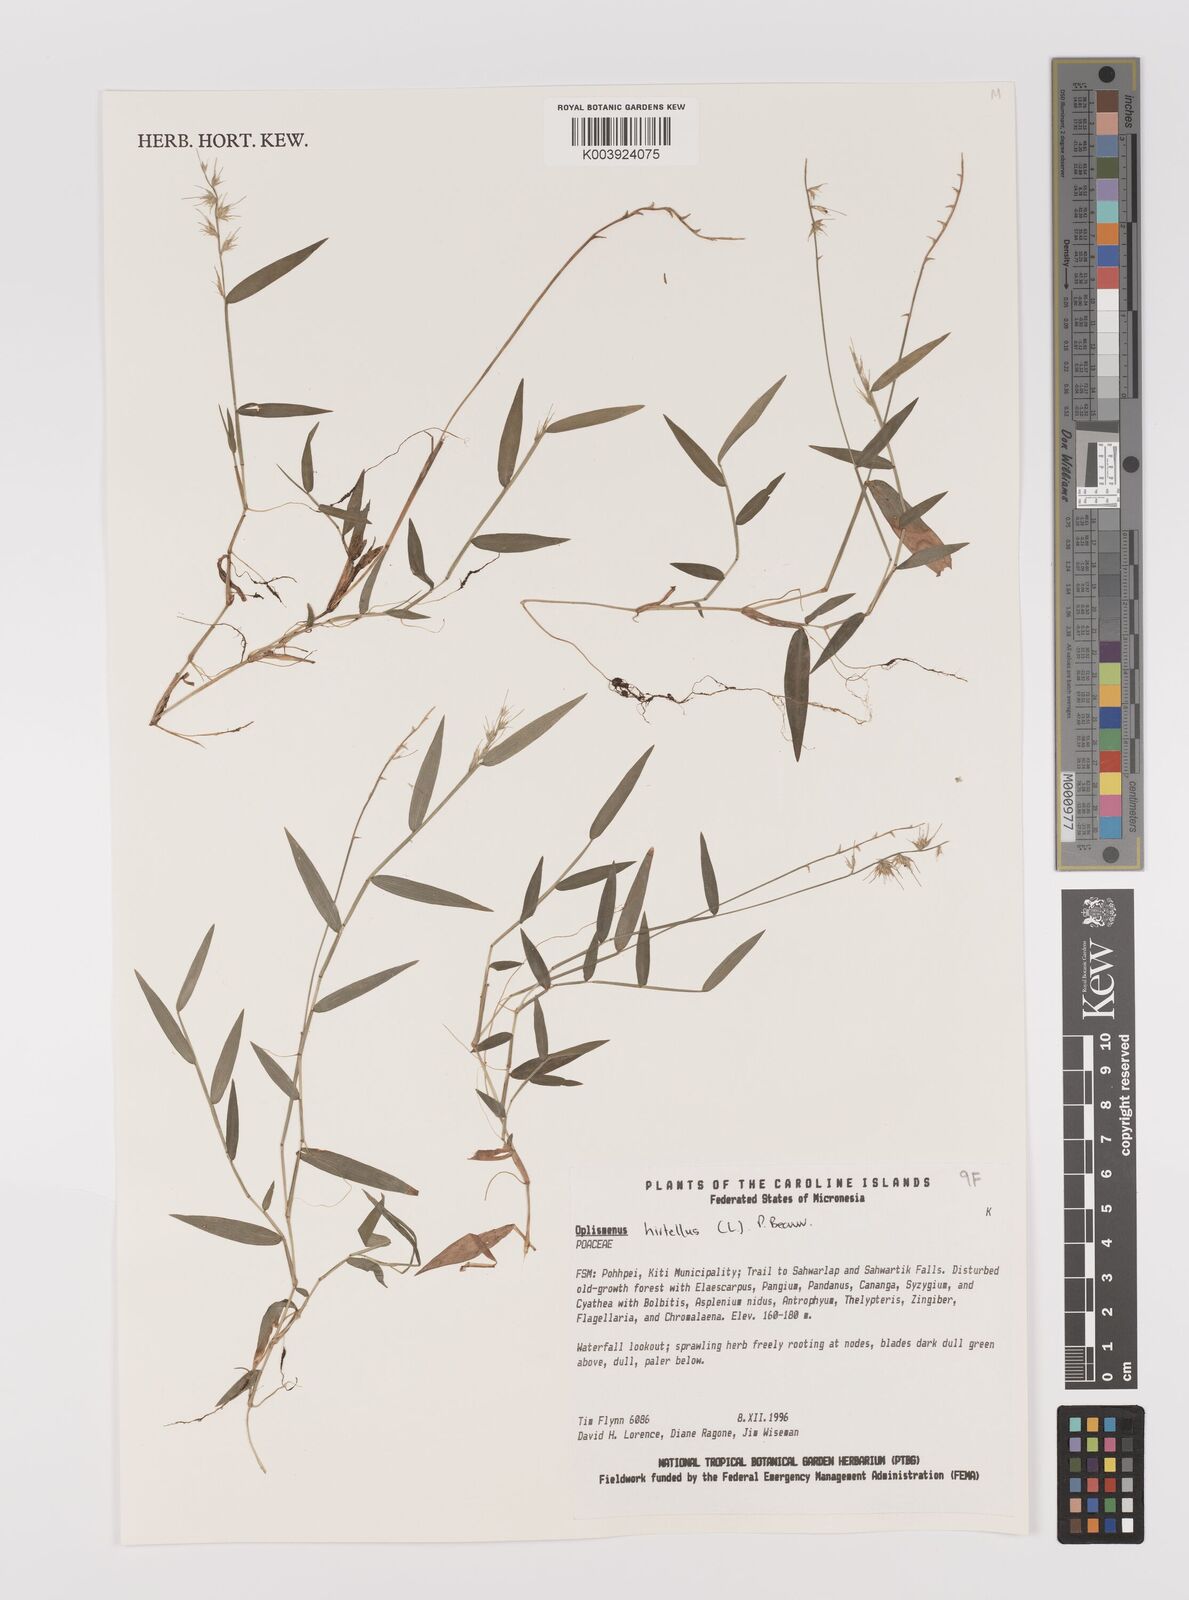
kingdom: Plantae
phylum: Tracheophyta
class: Liliopsida
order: Poales
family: Poaceae
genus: Oplismenus
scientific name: Oplismenus
